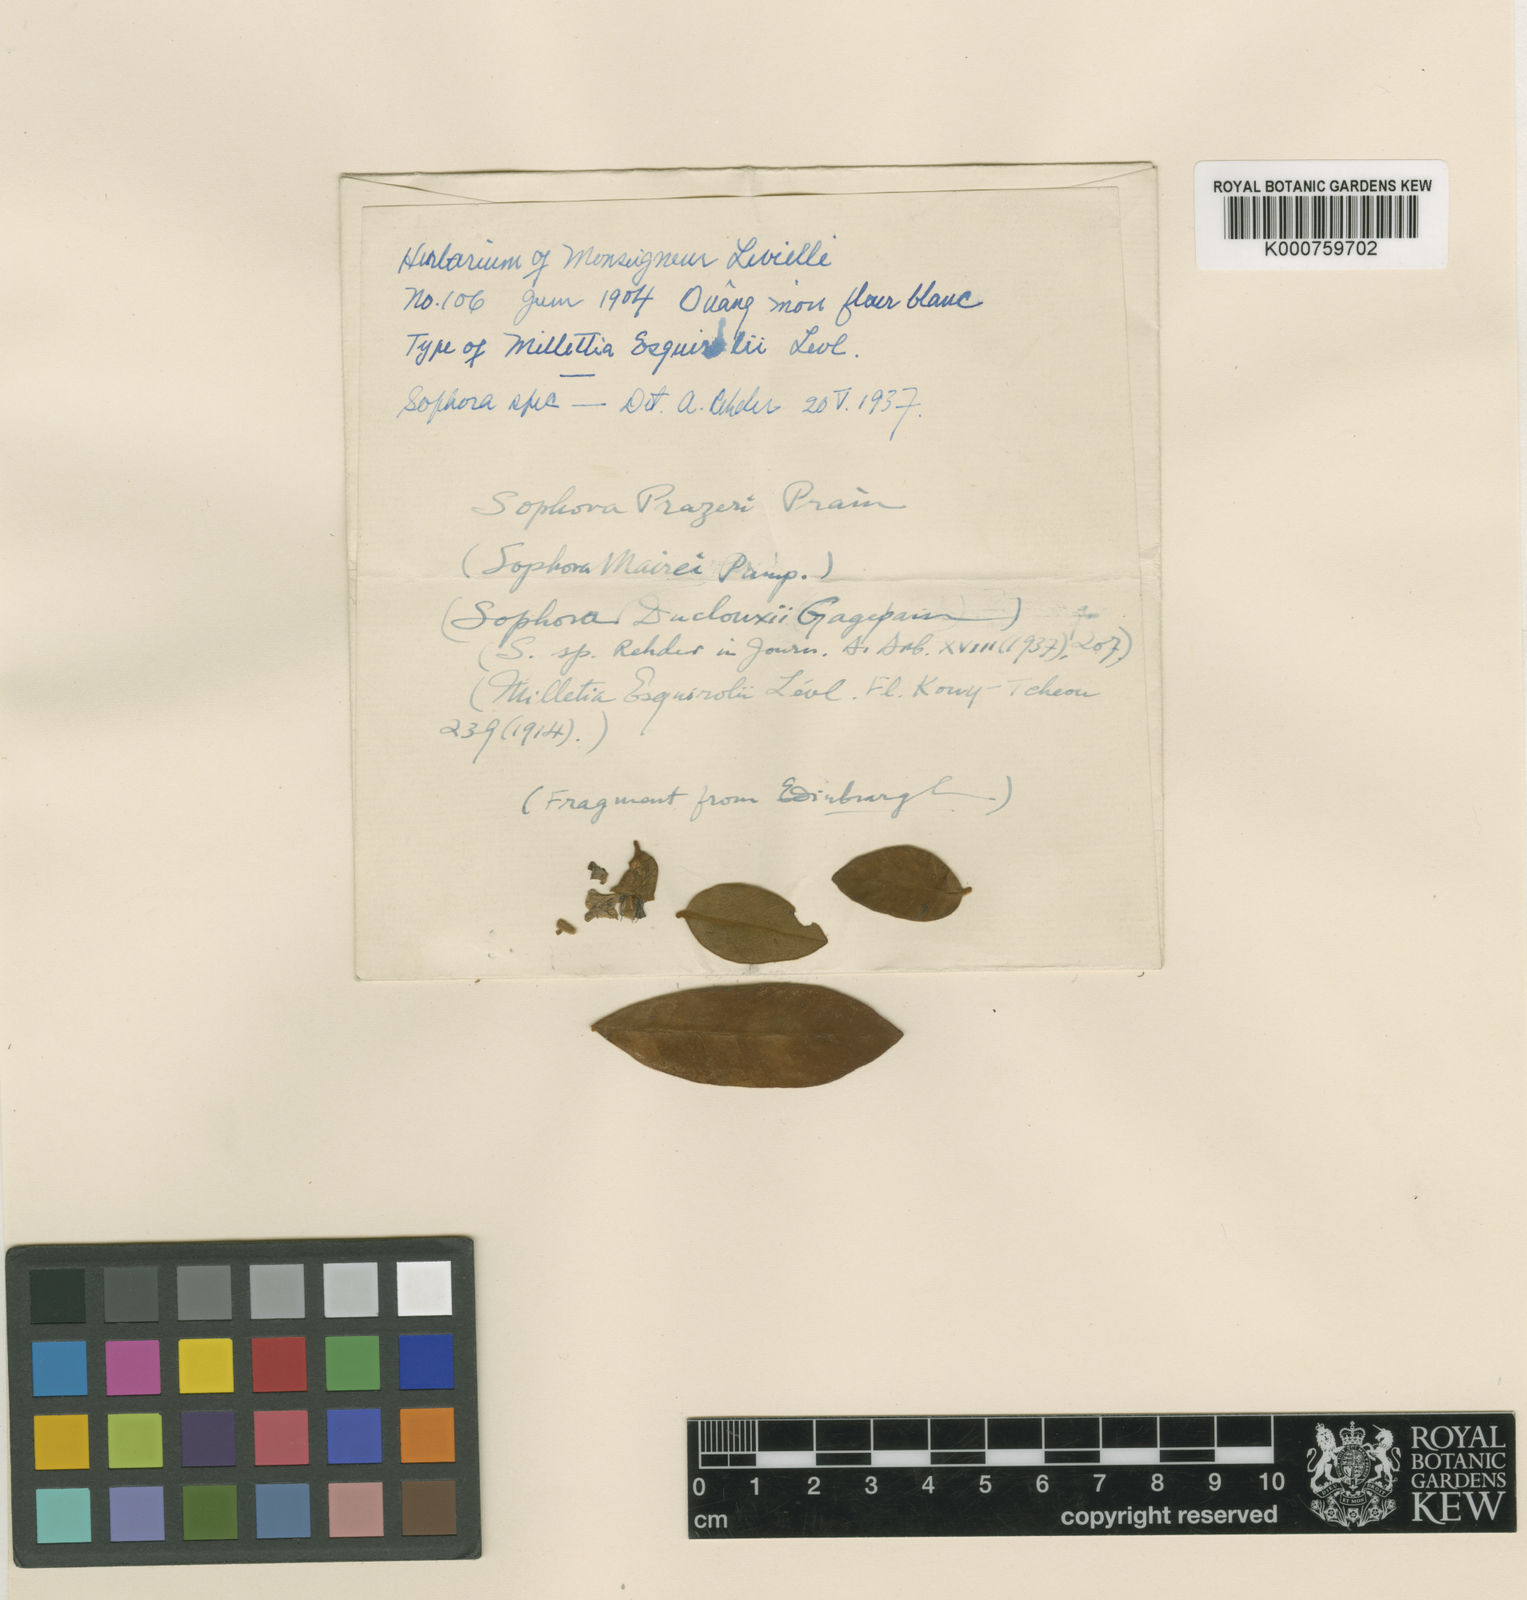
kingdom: Plantae
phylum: Tracheophyta
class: Magnoliopsida
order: Fabales
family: Fabaceae
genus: Sophora
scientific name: Sophora wightii
